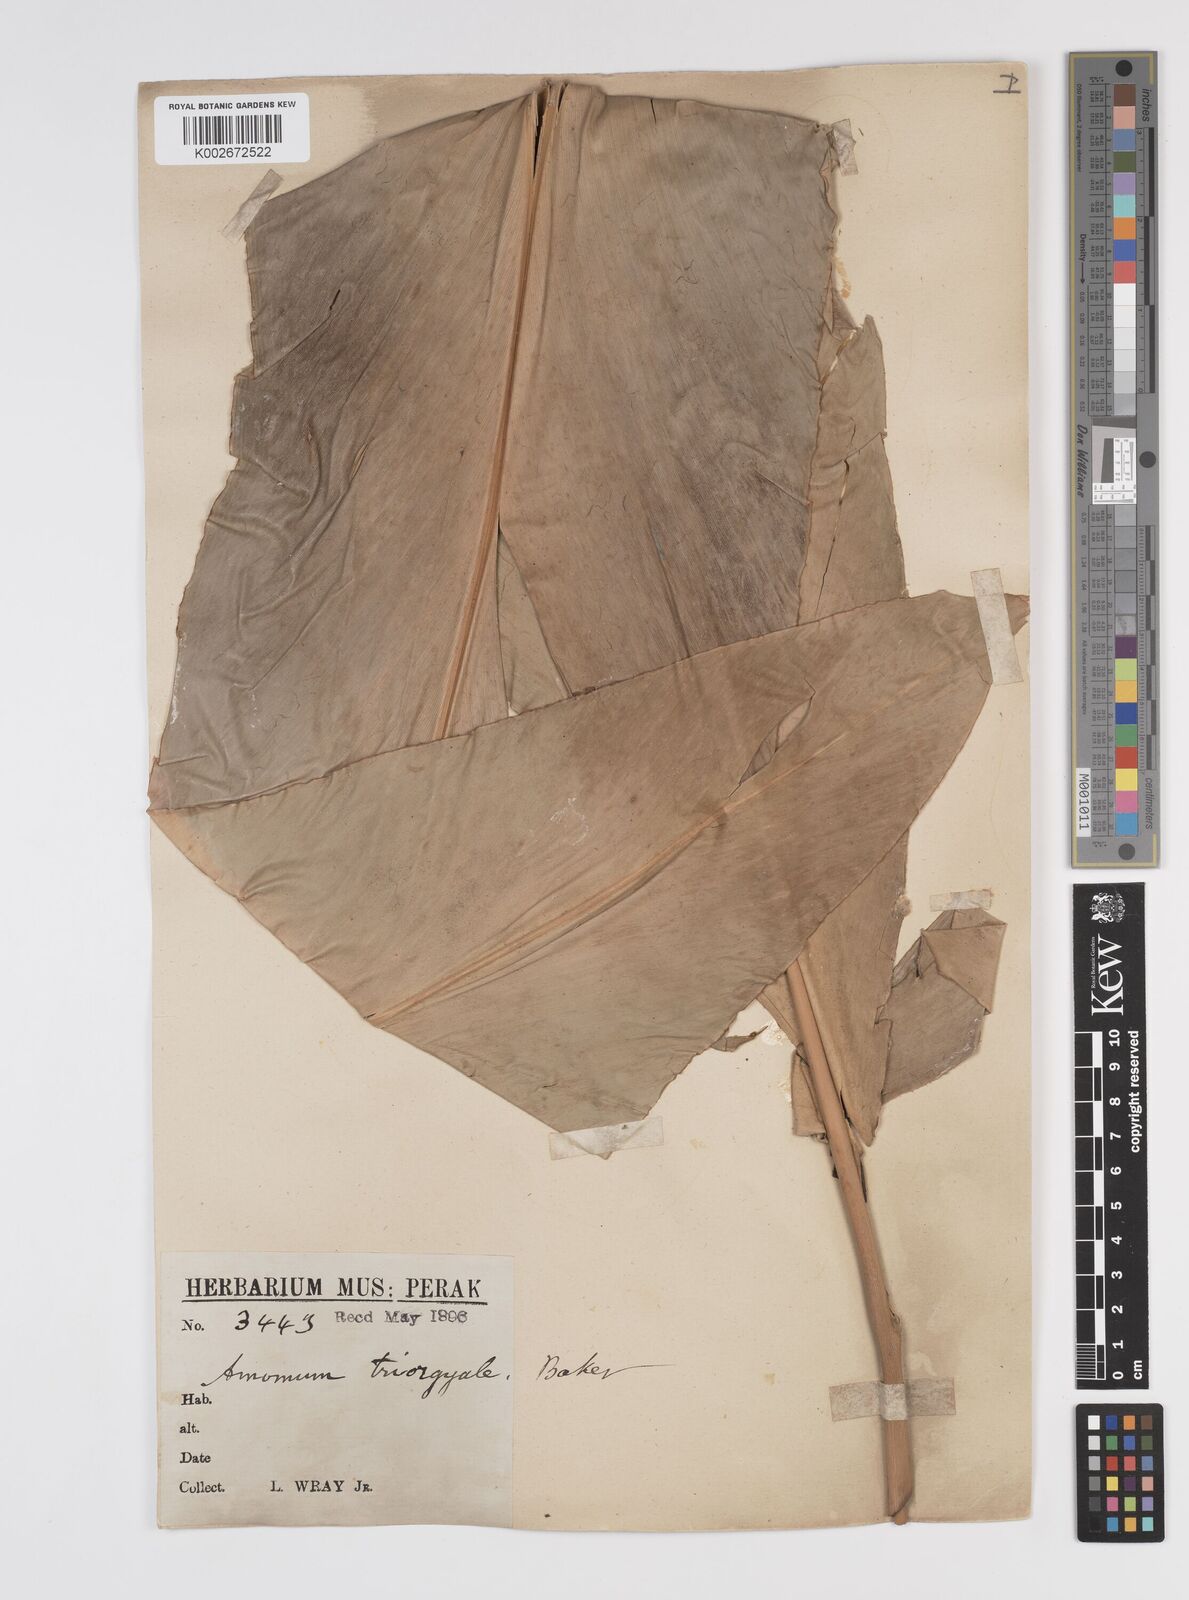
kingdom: Plantae
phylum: Tracheophyta
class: Liliopsida
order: Zingiberales
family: Zingiberaceae
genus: Etlingera
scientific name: Etlingera triorgyalis
